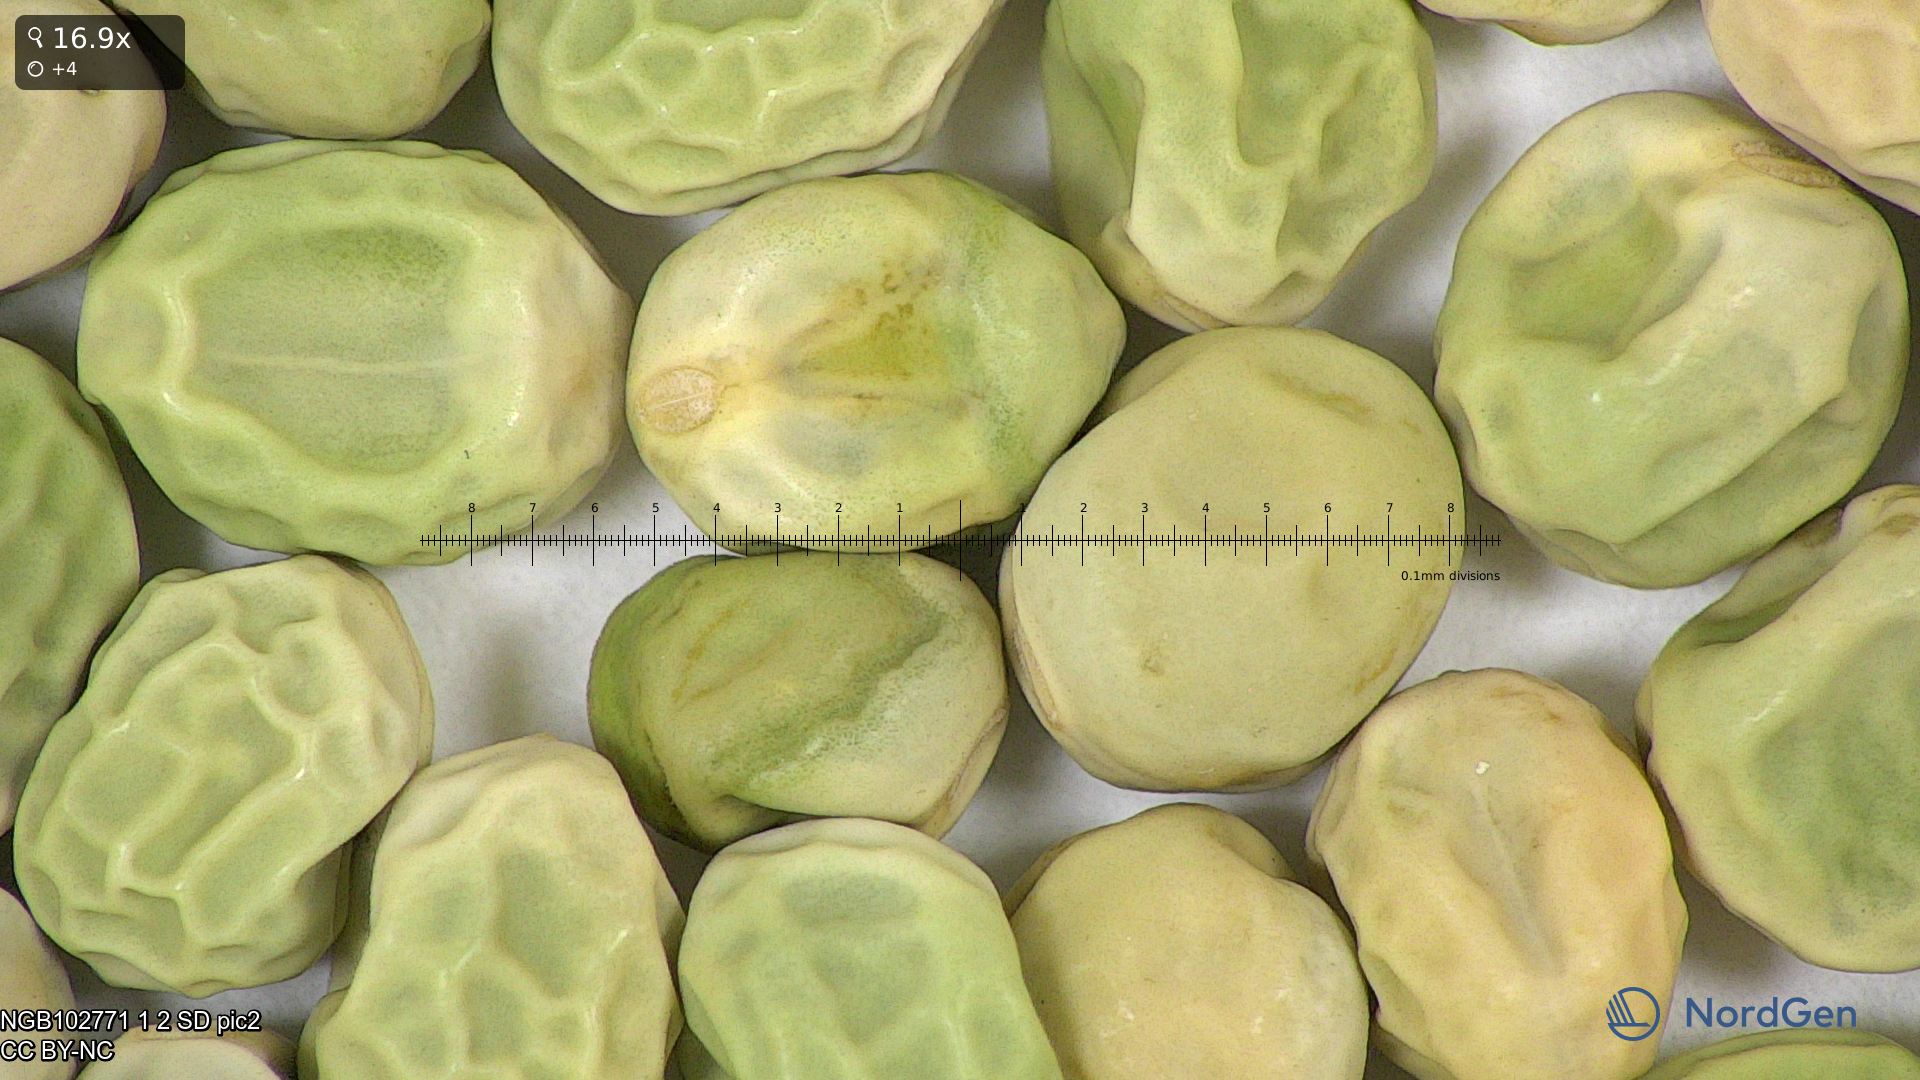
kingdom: Plantae
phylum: Tracheophyta
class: Magnoliopsida
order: Fabales
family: Fabaceae
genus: Lathyrus
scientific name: Lathyrus oleraceus
